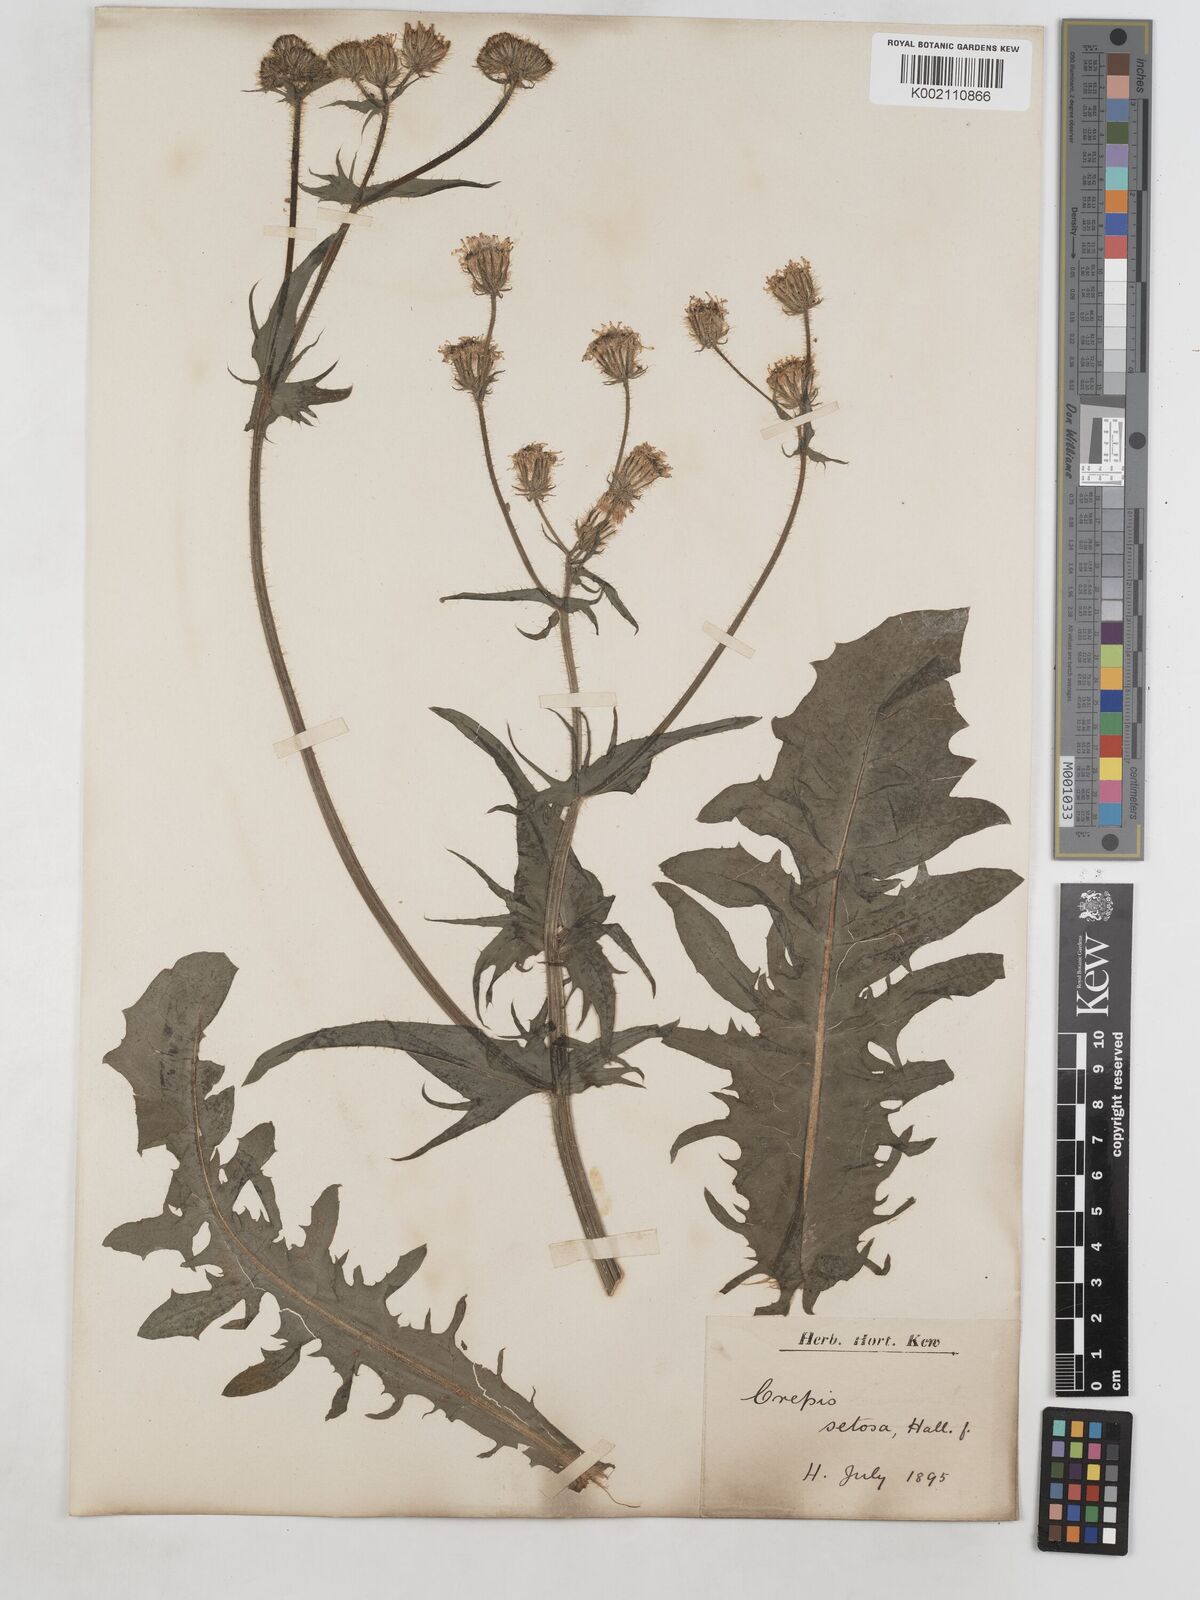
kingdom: Plantae
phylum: Tracheophyta
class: Magnoliopsida
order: Asterales
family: Asteraceae
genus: Crepis
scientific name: Crepis setosa
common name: Bristly hawk's-beard
